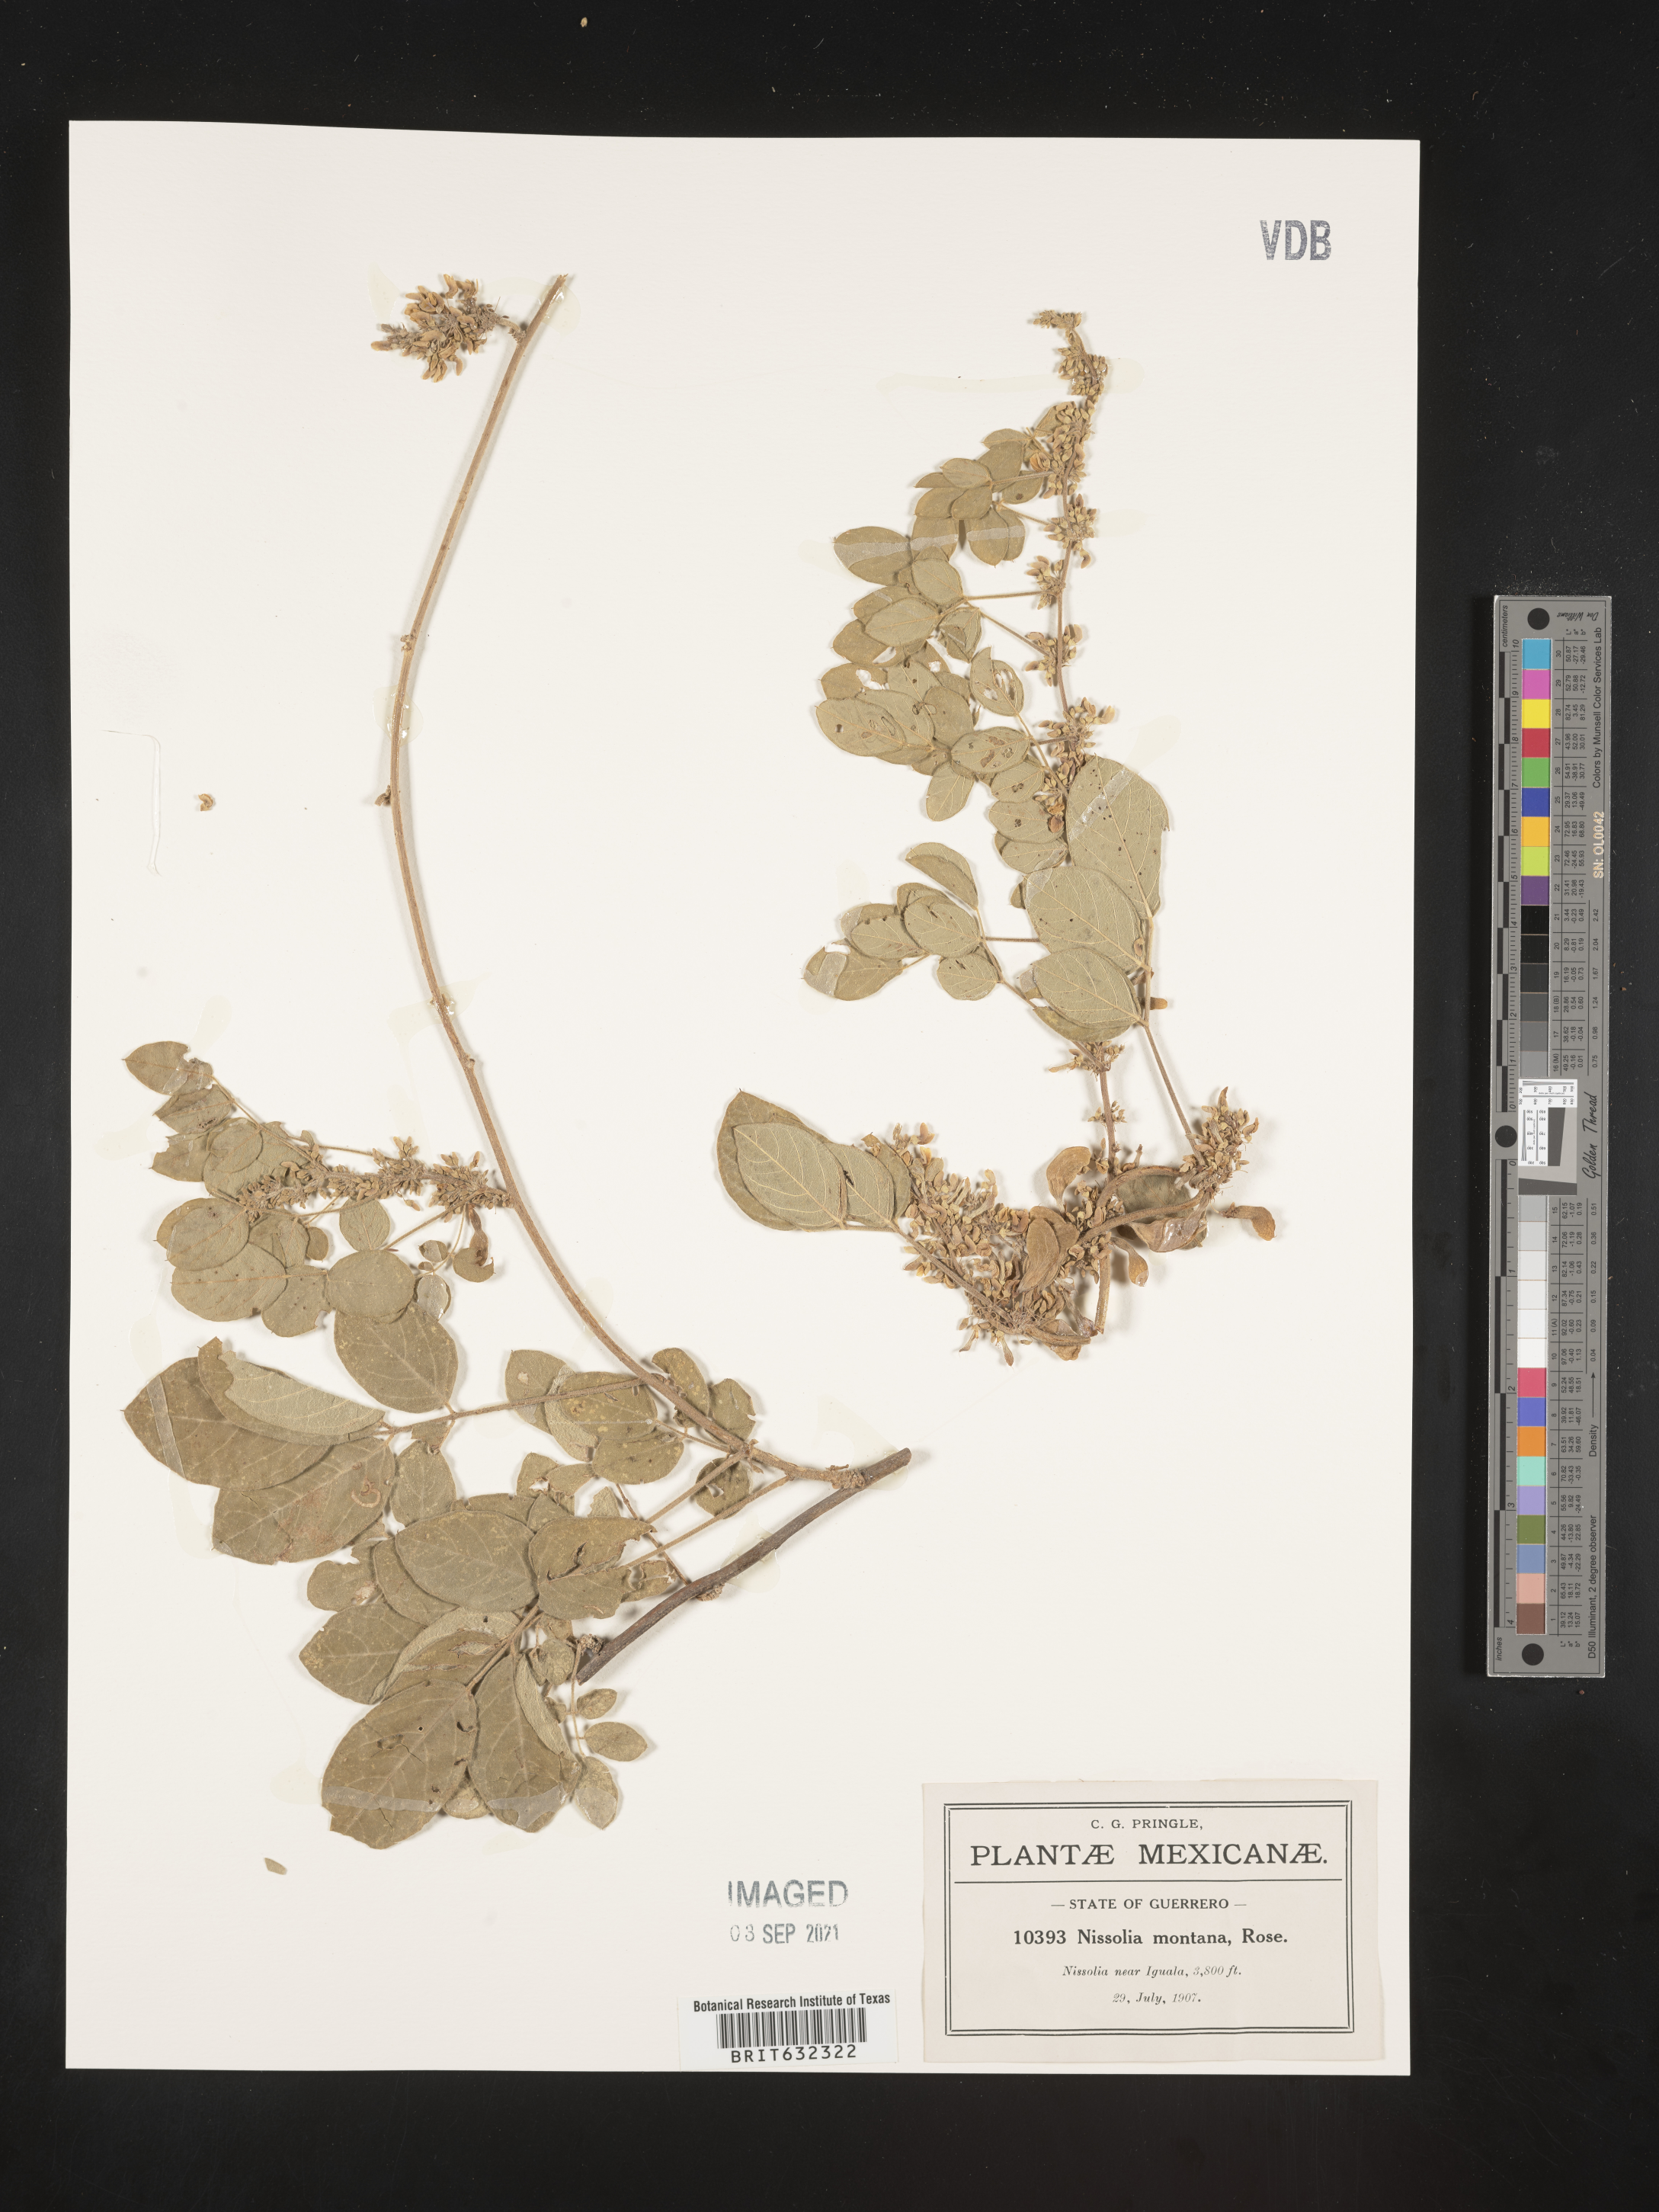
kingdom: Plantae
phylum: Tracheophyta
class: Magnoliopsida
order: Fabales
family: Fabaceae
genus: Nissolia
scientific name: Nissolia
